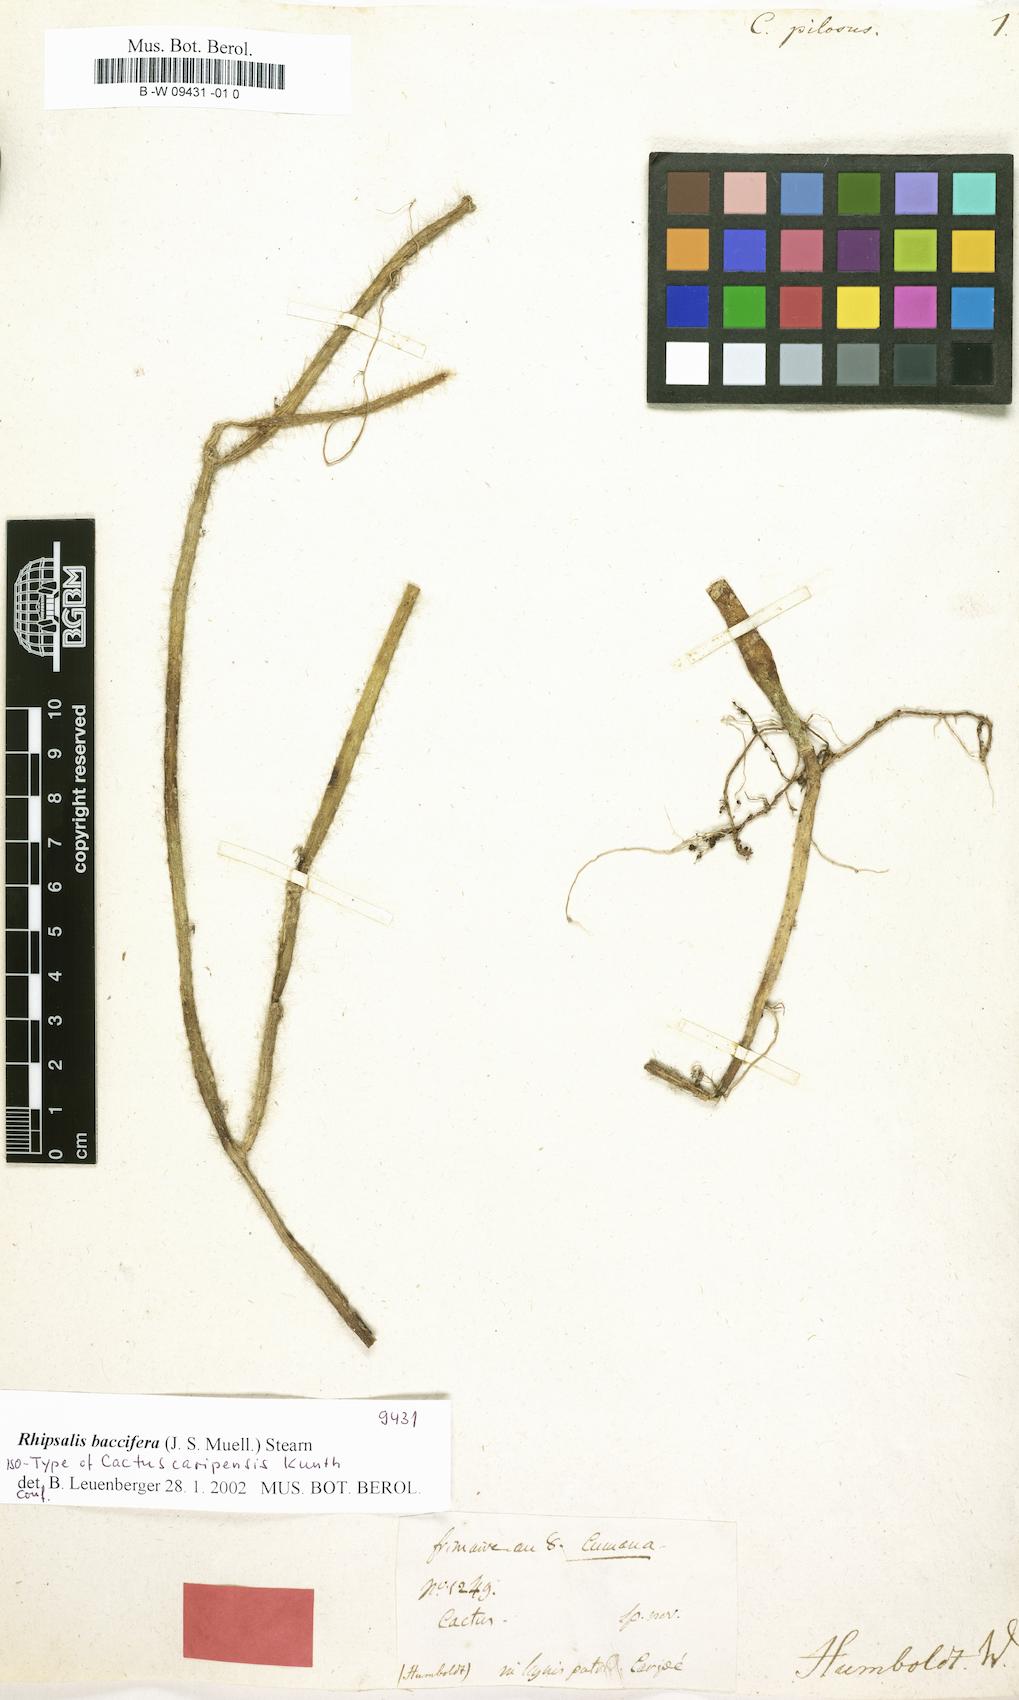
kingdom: Plantae
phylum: Tracheophyta
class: Magnoliopsida
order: Caryophyllales
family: Cactaceae
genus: Cactus
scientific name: Cactus
